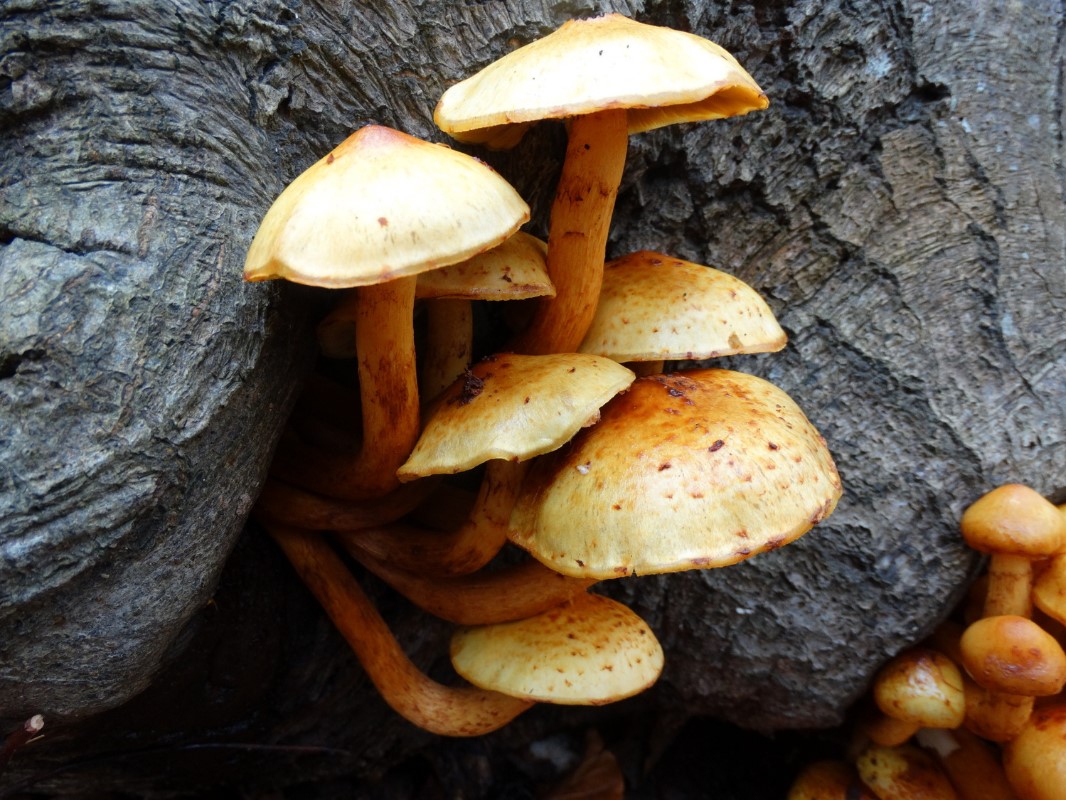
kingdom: Fungi
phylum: Basidiomycota
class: Agaricomycetes
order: Agaricales
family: Strophariaceae
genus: Pholiota
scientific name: Pholiota adiposa
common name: højtsiddende skælhat
